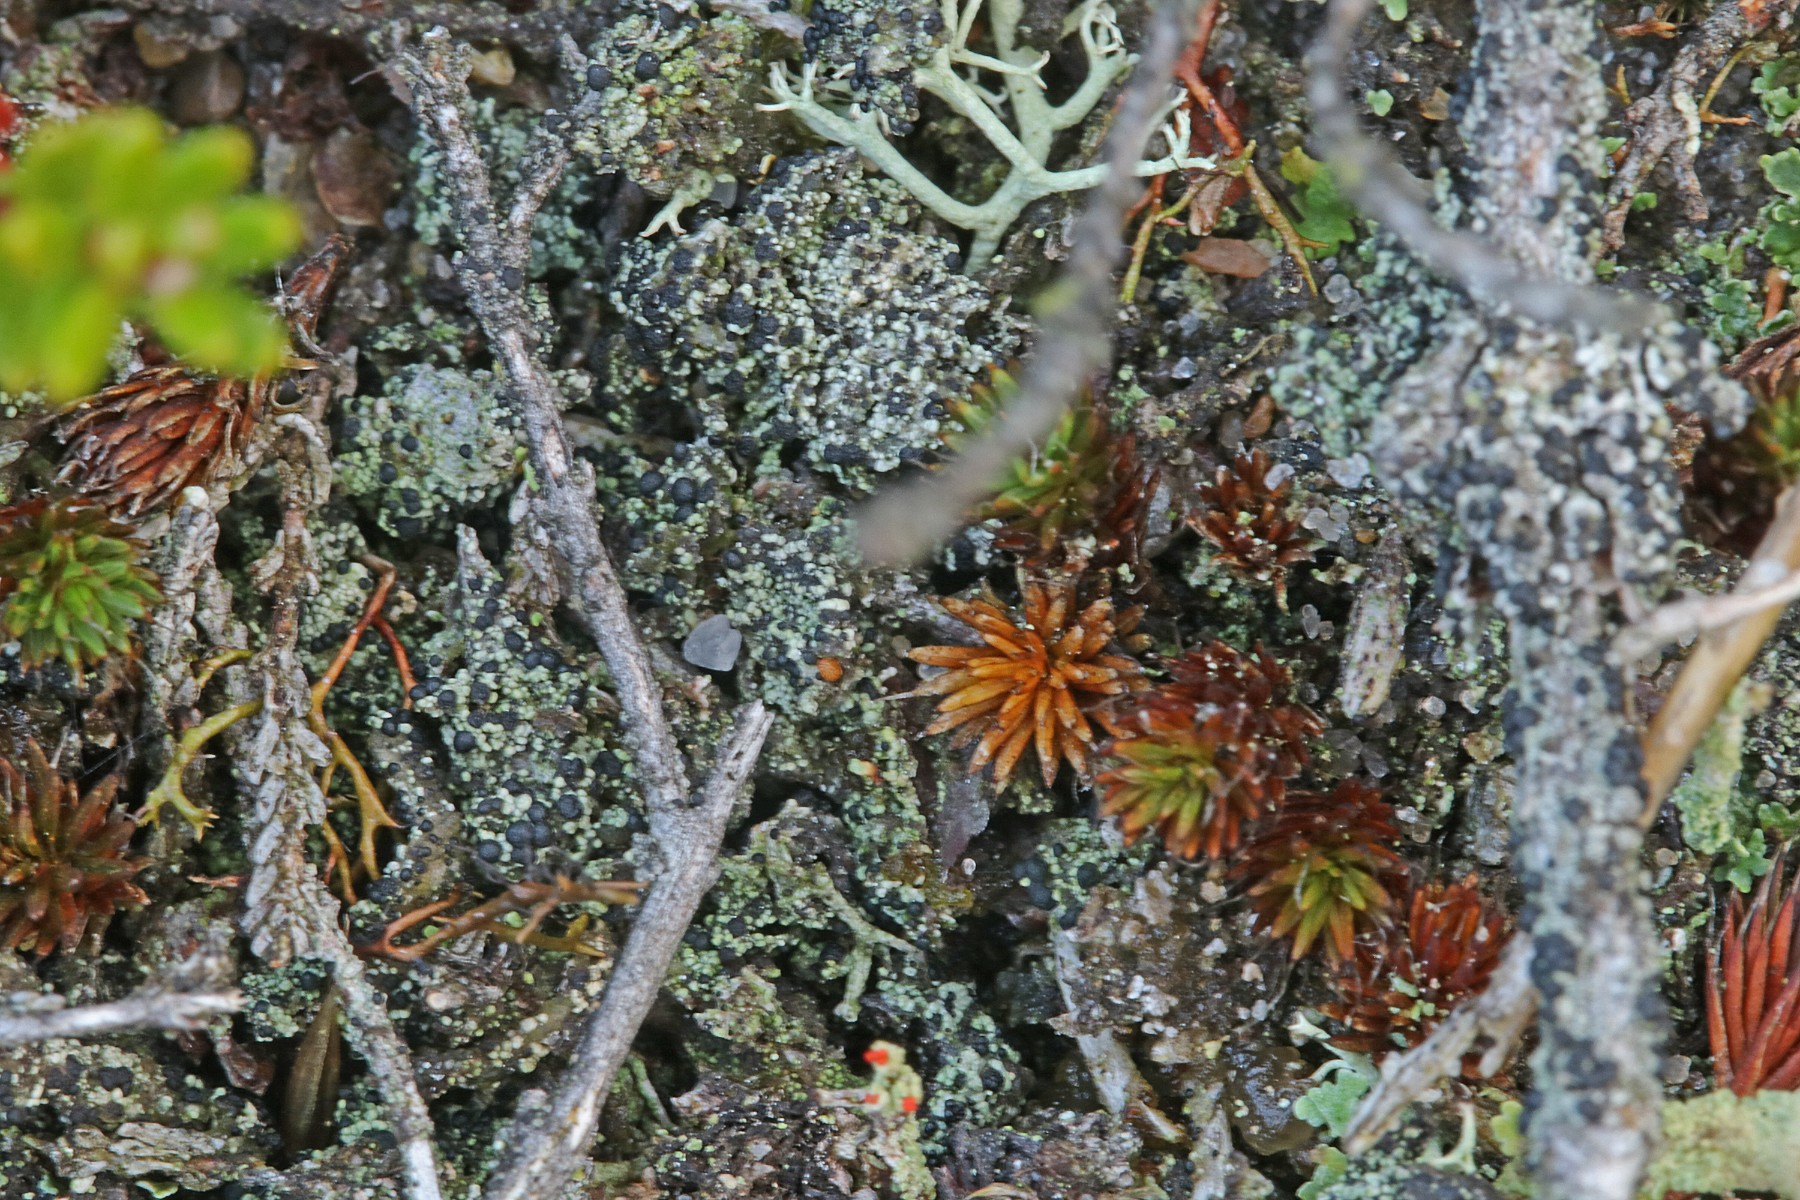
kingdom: Fungi
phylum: Ascomycota
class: Lecanoromycetes
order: Lecanorales
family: Byssolomataceae
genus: Micarea
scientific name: Micarea lignaria
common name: tørve-knaplav
